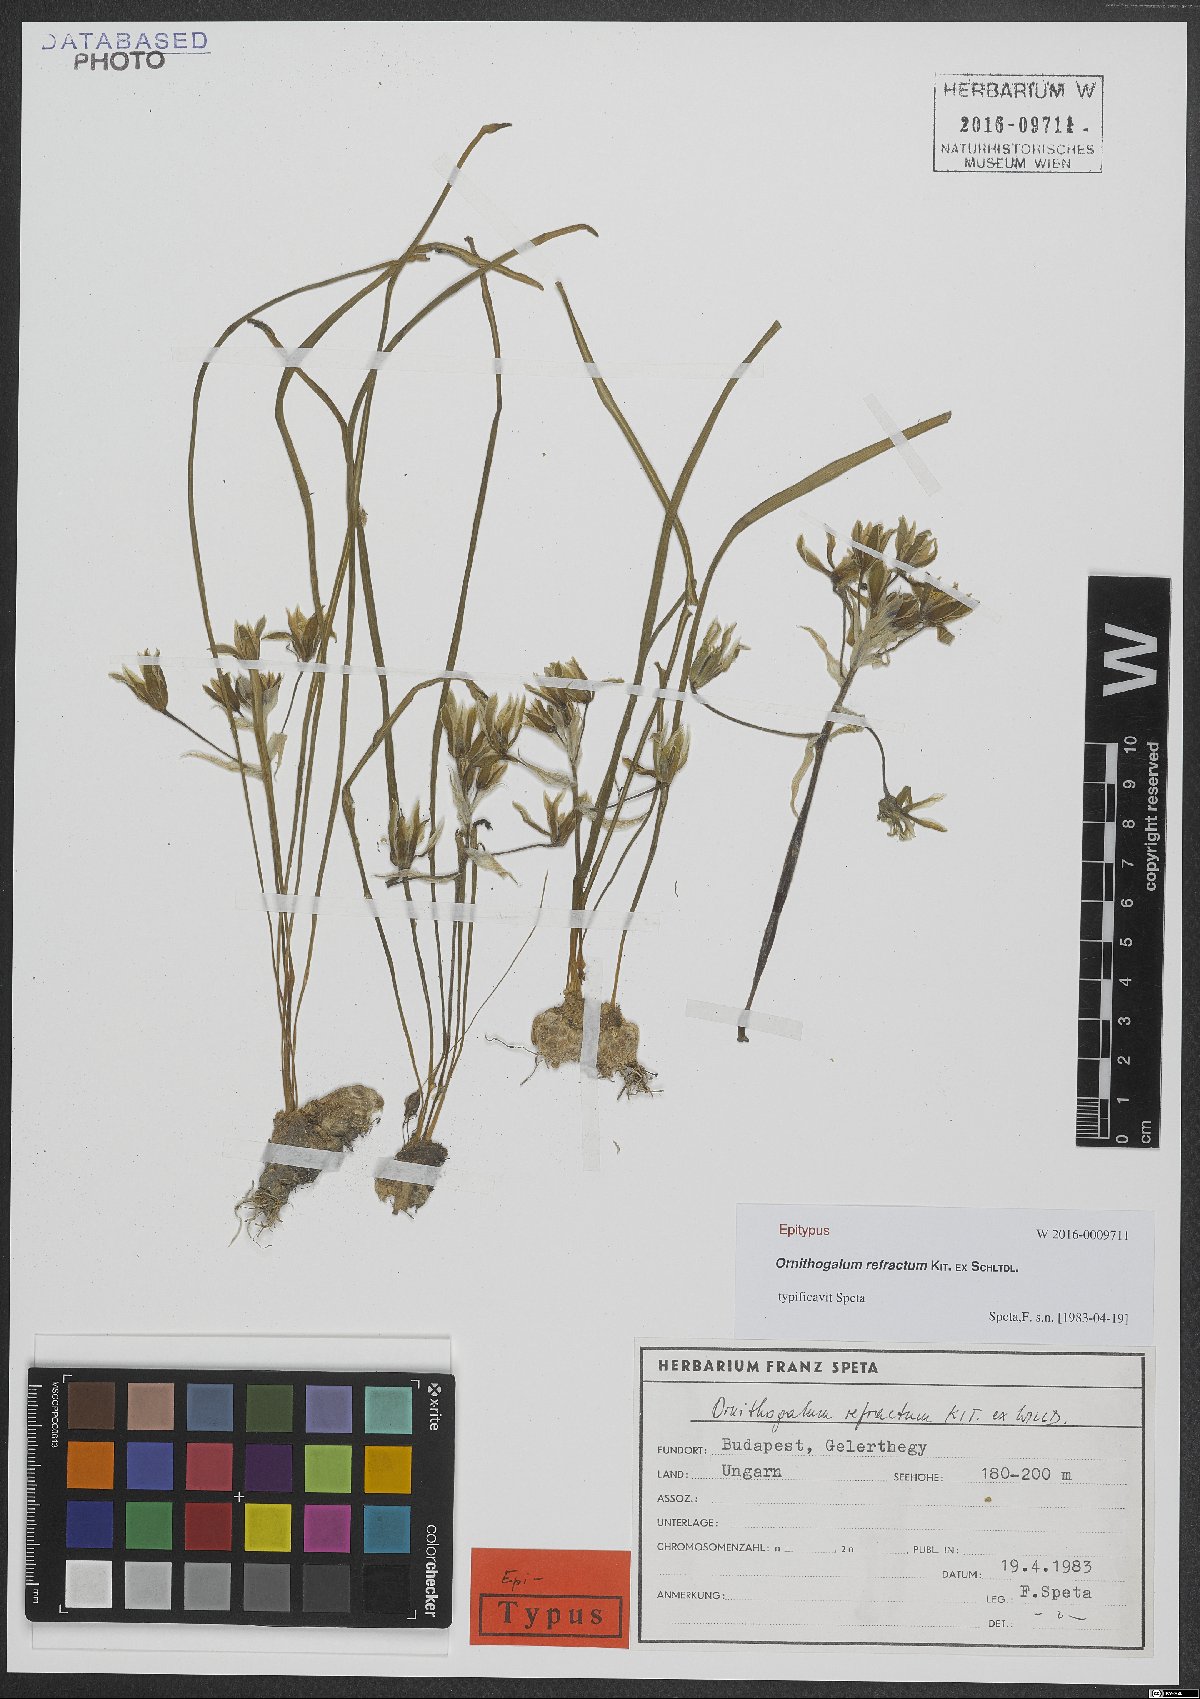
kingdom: Plantae
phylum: Tracheophyta
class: Liliopsida
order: Asparagales
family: Asparagaceae
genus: Ornithogalum
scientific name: Ornithogalum refractum
